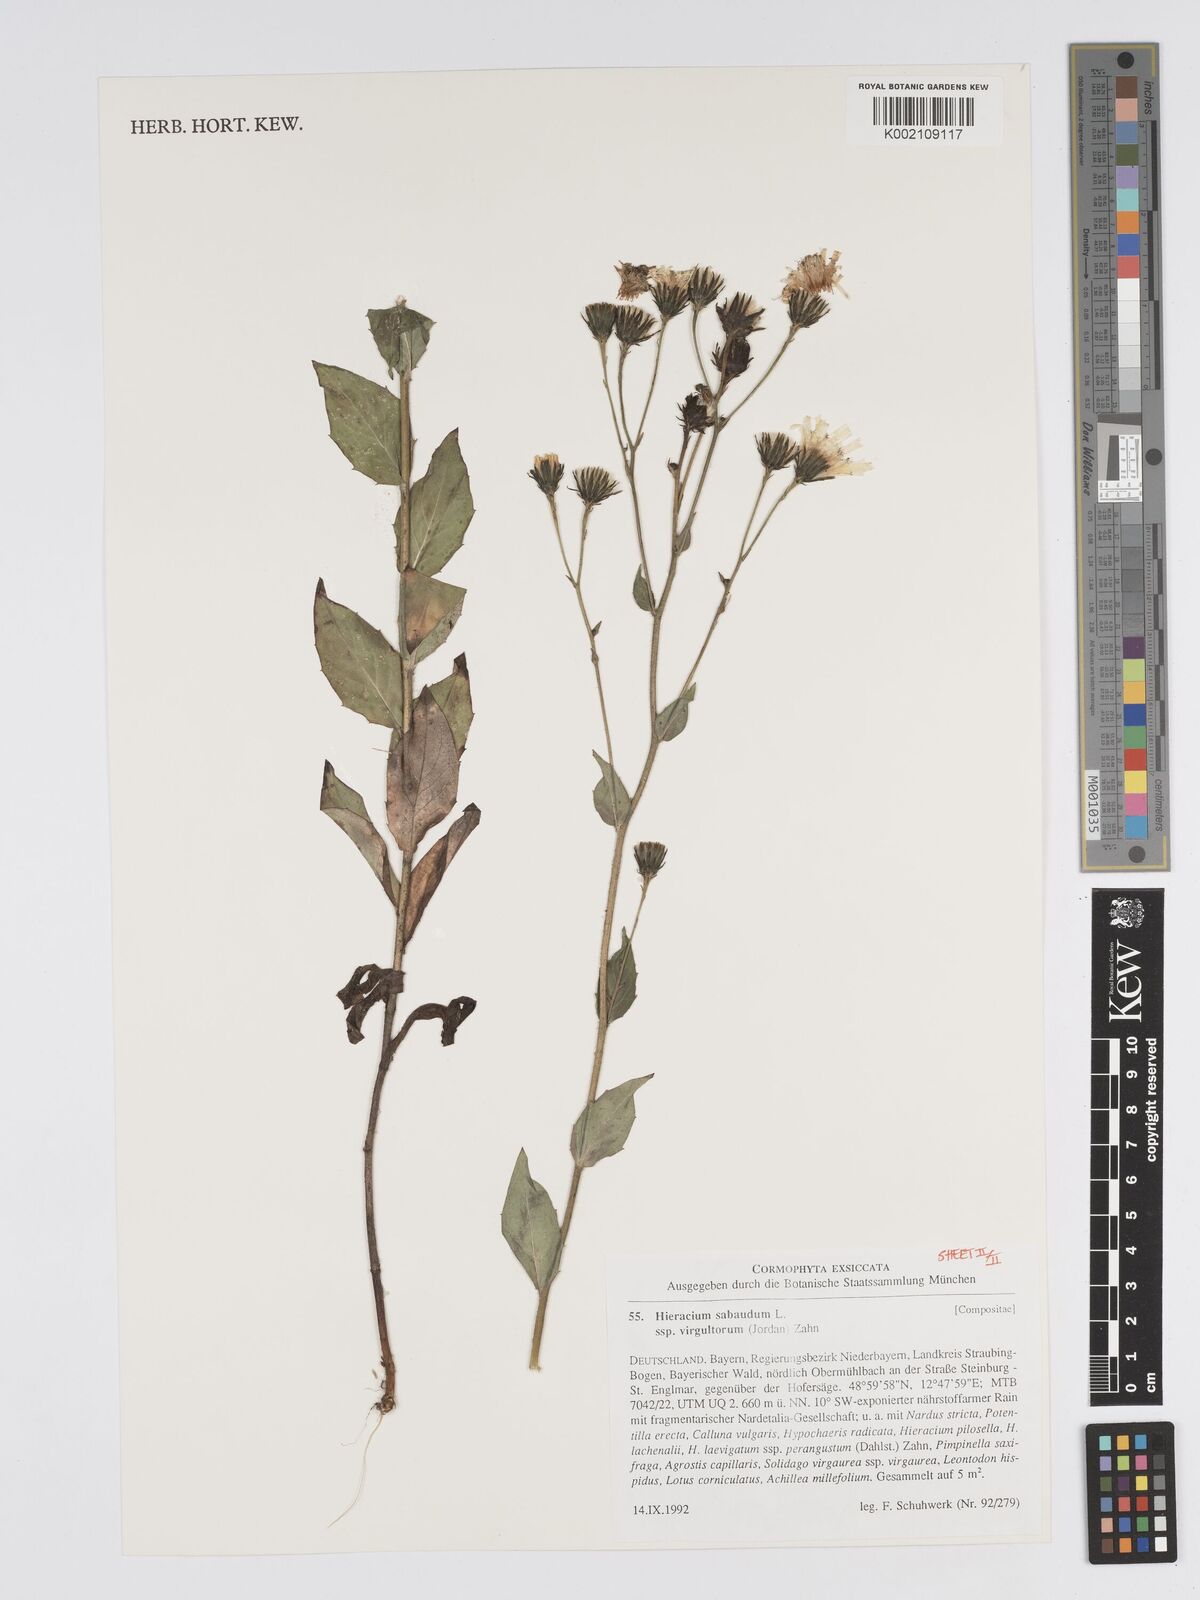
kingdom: Plantae
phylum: Tracheophyta
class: Magnoliopsida
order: Asterales
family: Asteraceae
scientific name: Asteraceae
